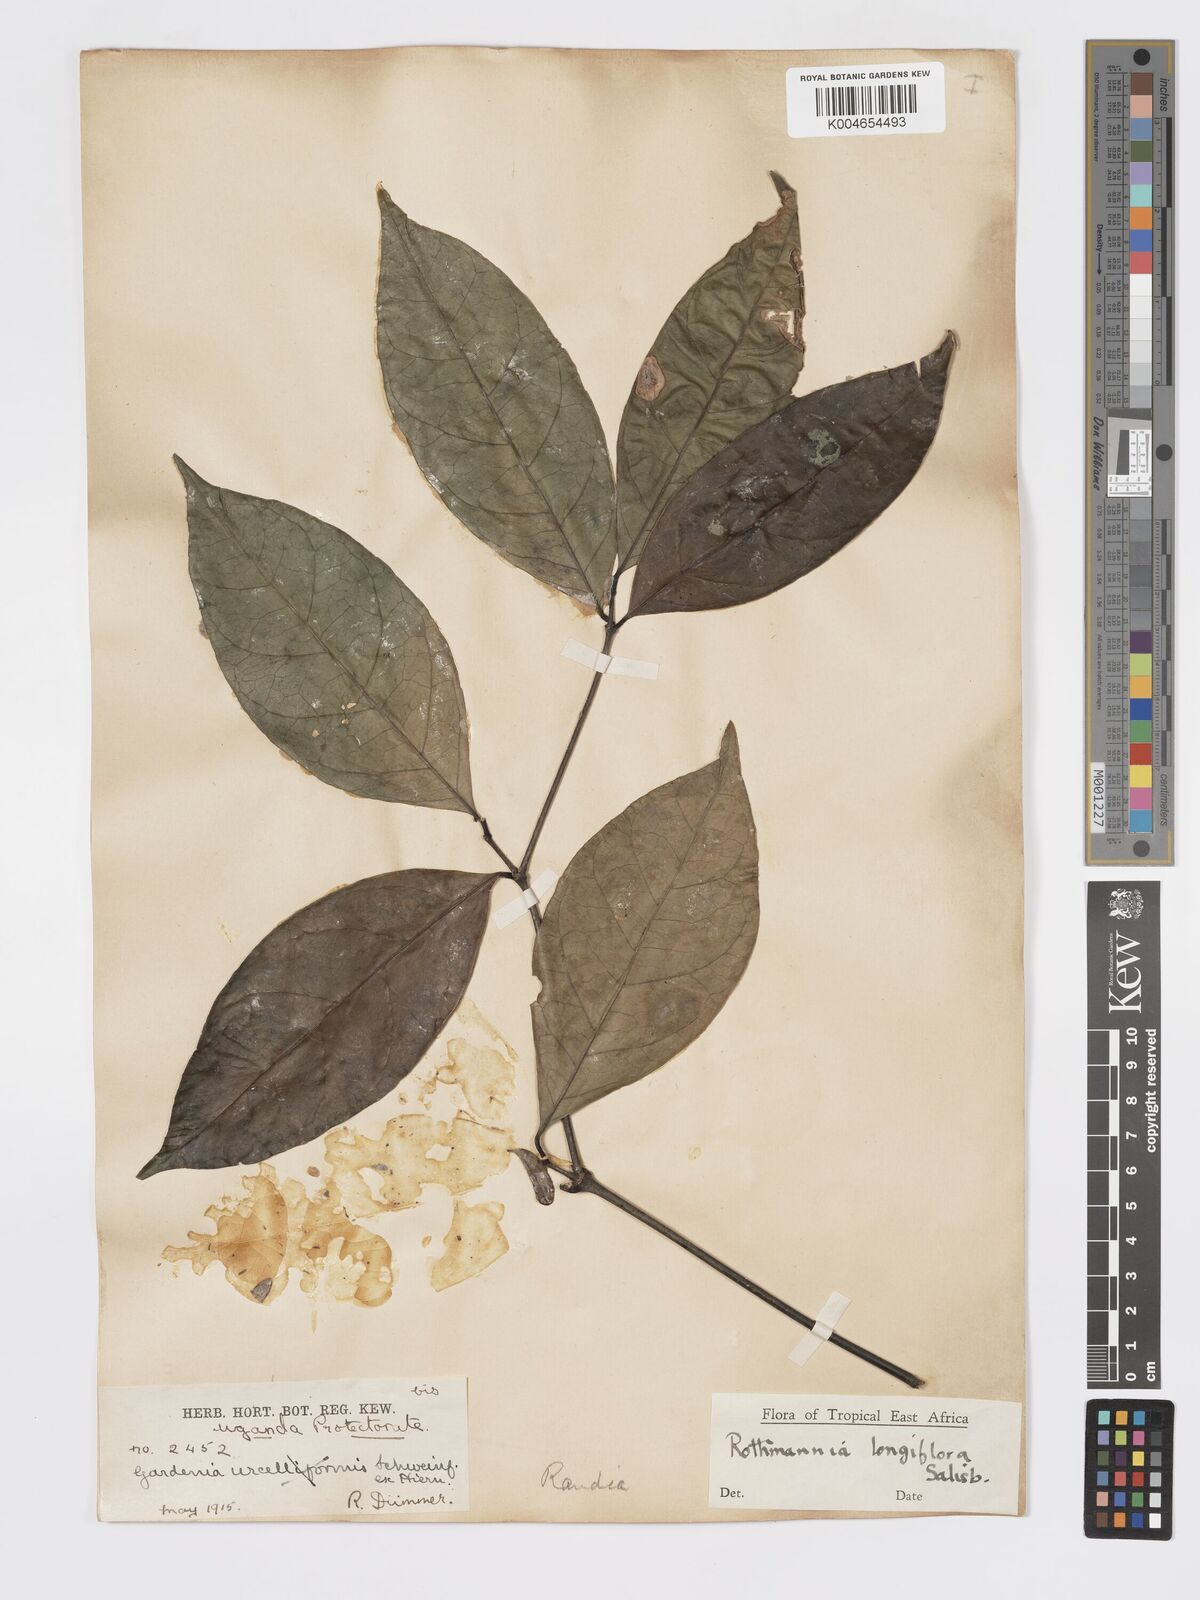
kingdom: Plantae
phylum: Tracheophyta
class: Magnoliopsida
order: Gentianales
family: Rubiaceae
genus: Rothmannia
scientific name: Rothmannia longiflora
